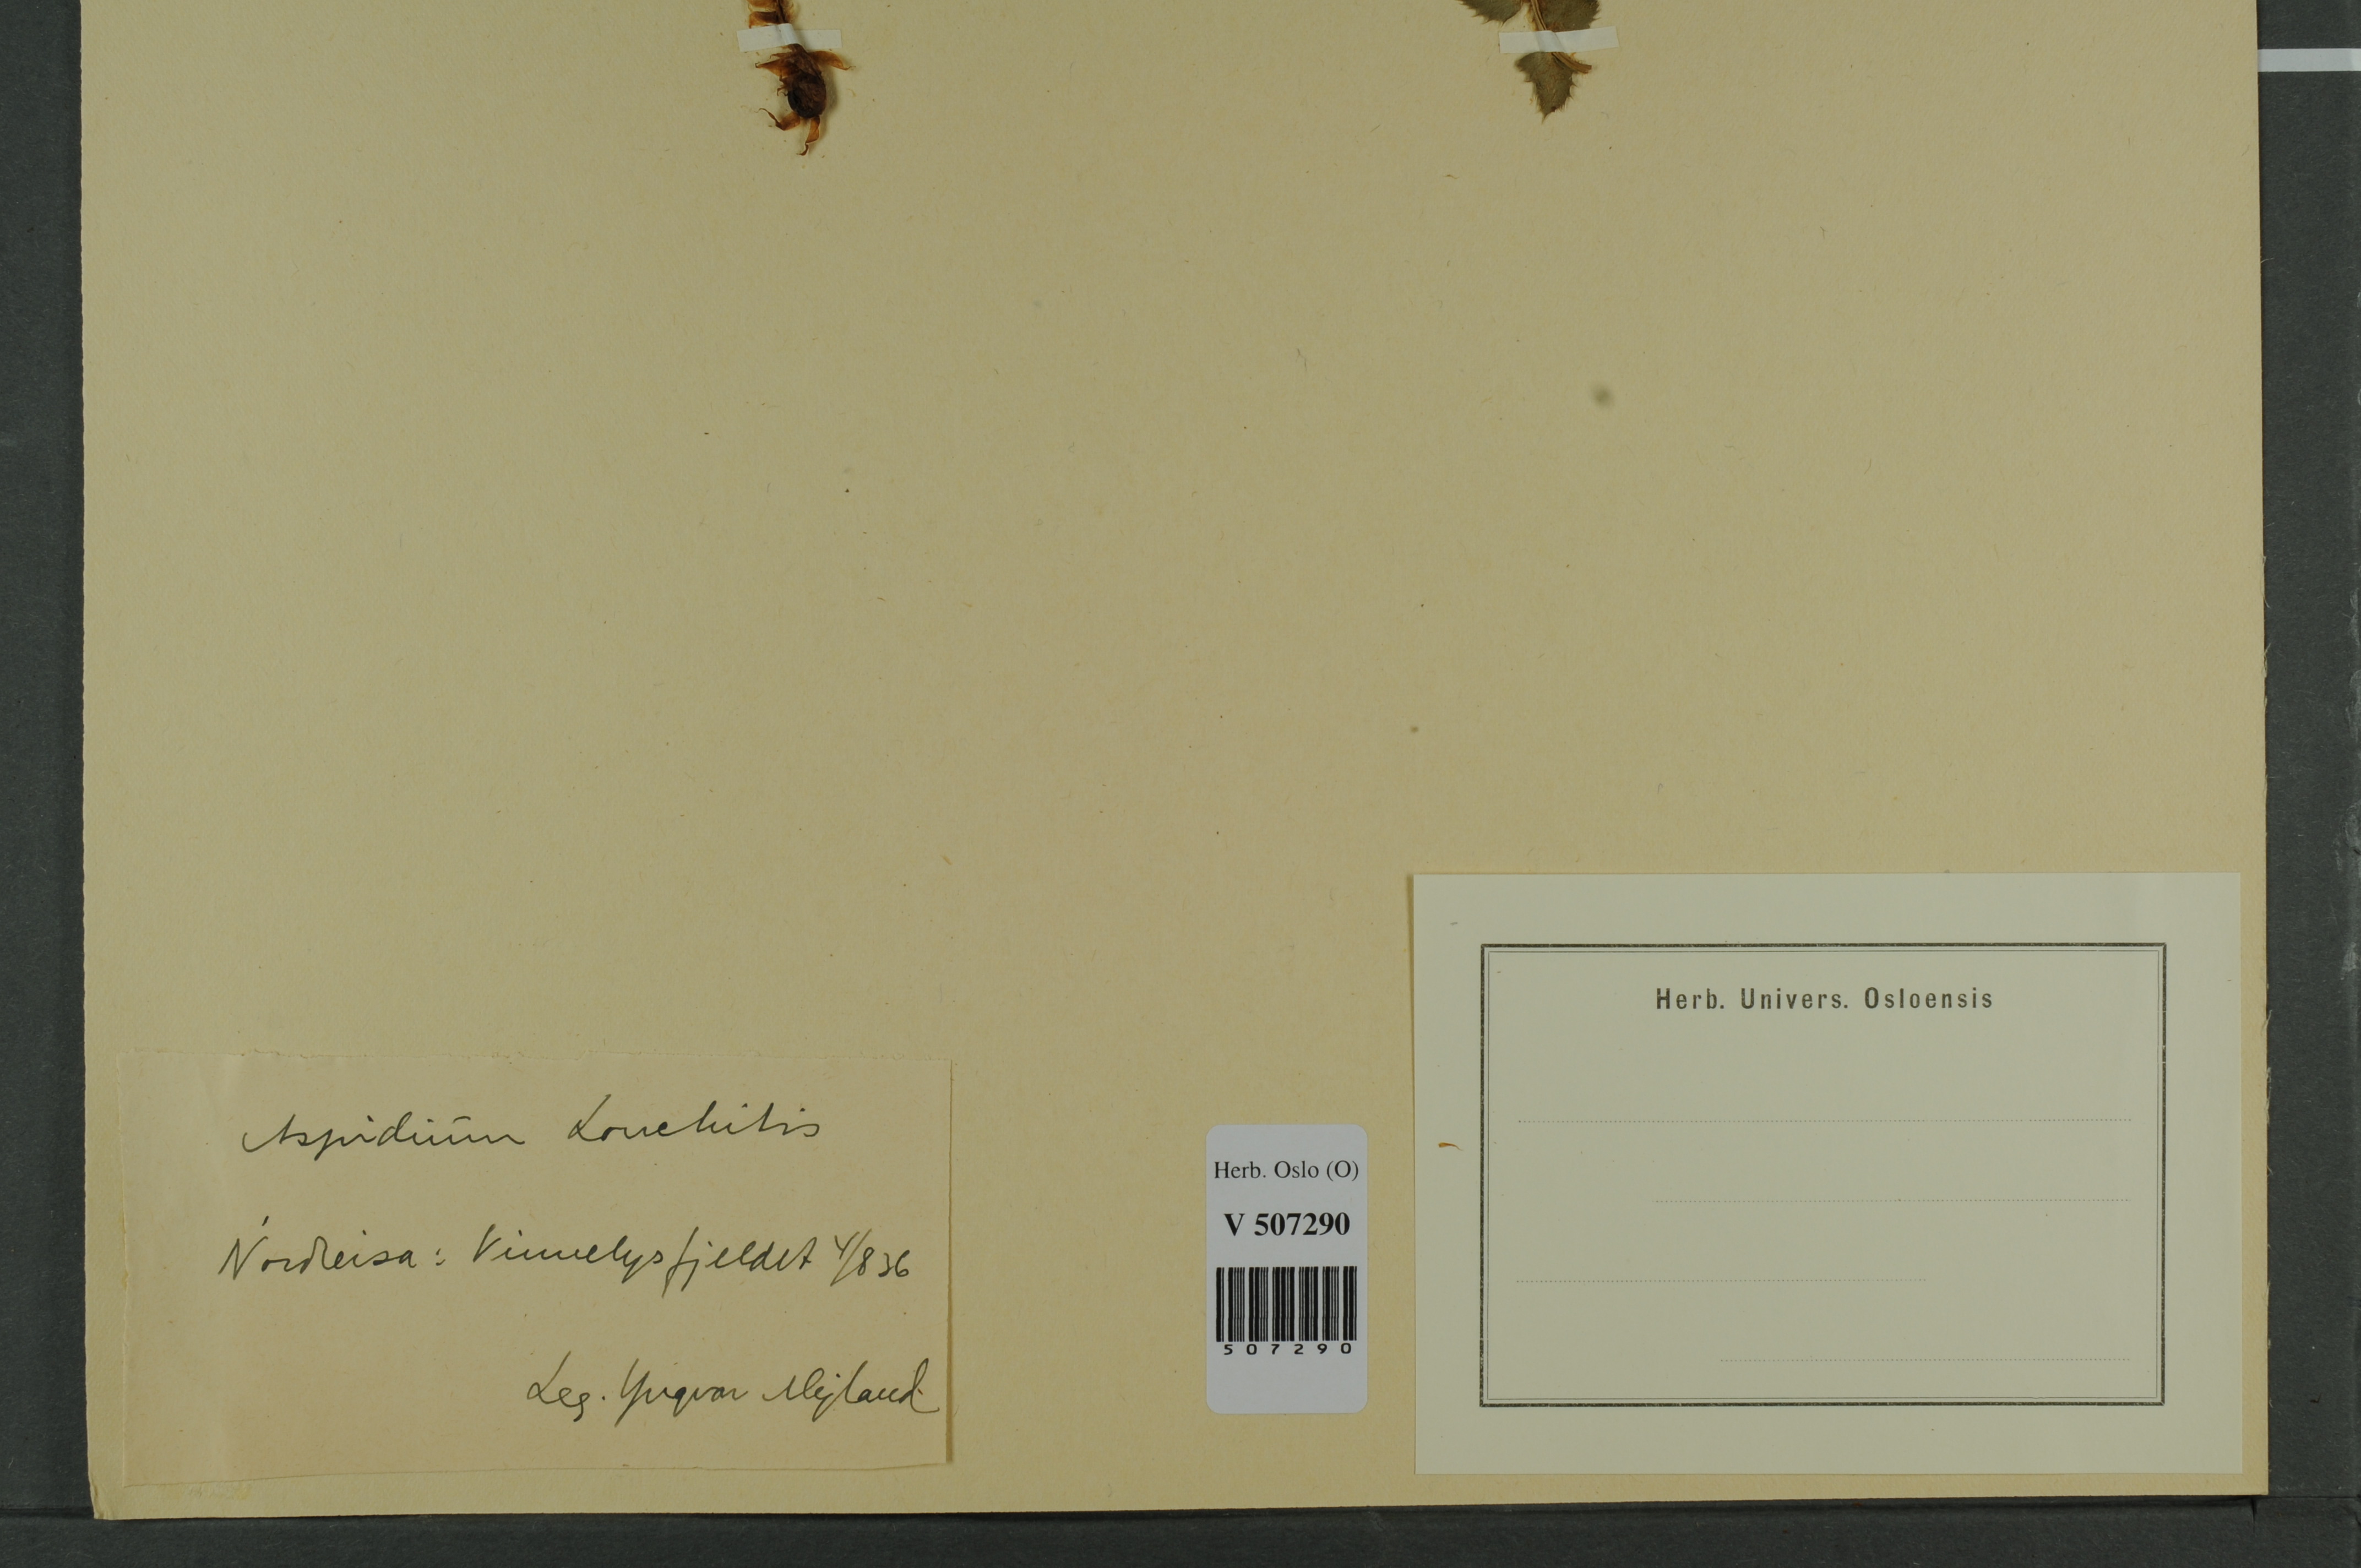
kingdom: Plantae
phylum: Tracheophyta
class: Polypodiopsida
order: Polypodiales
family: Dryopteridaceae
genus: Polystichum
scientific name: Polystichum lonchitis
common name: Holly fern
